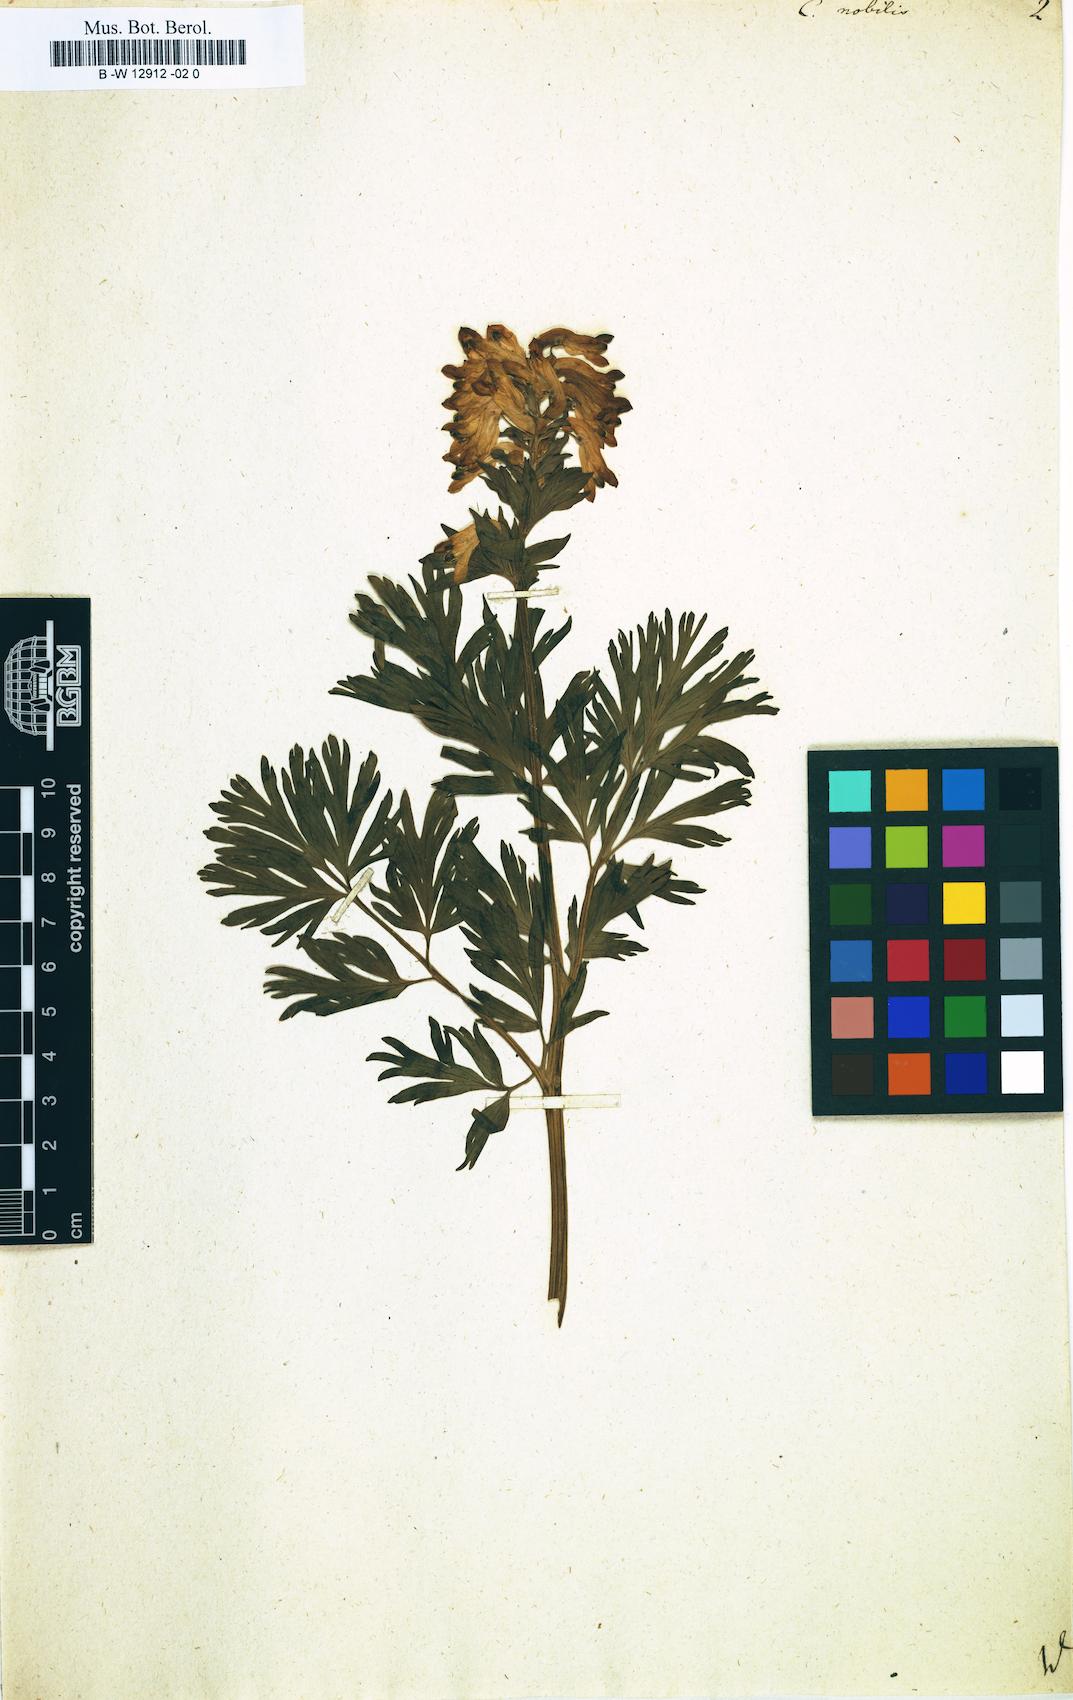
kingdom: Plantae
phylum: Tracheophyta
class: Magnoliopsida
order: Ranunculales
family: Papaveraceae
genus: Corydalis
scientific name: Corydalis nobilis
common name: Siberian corydalis
